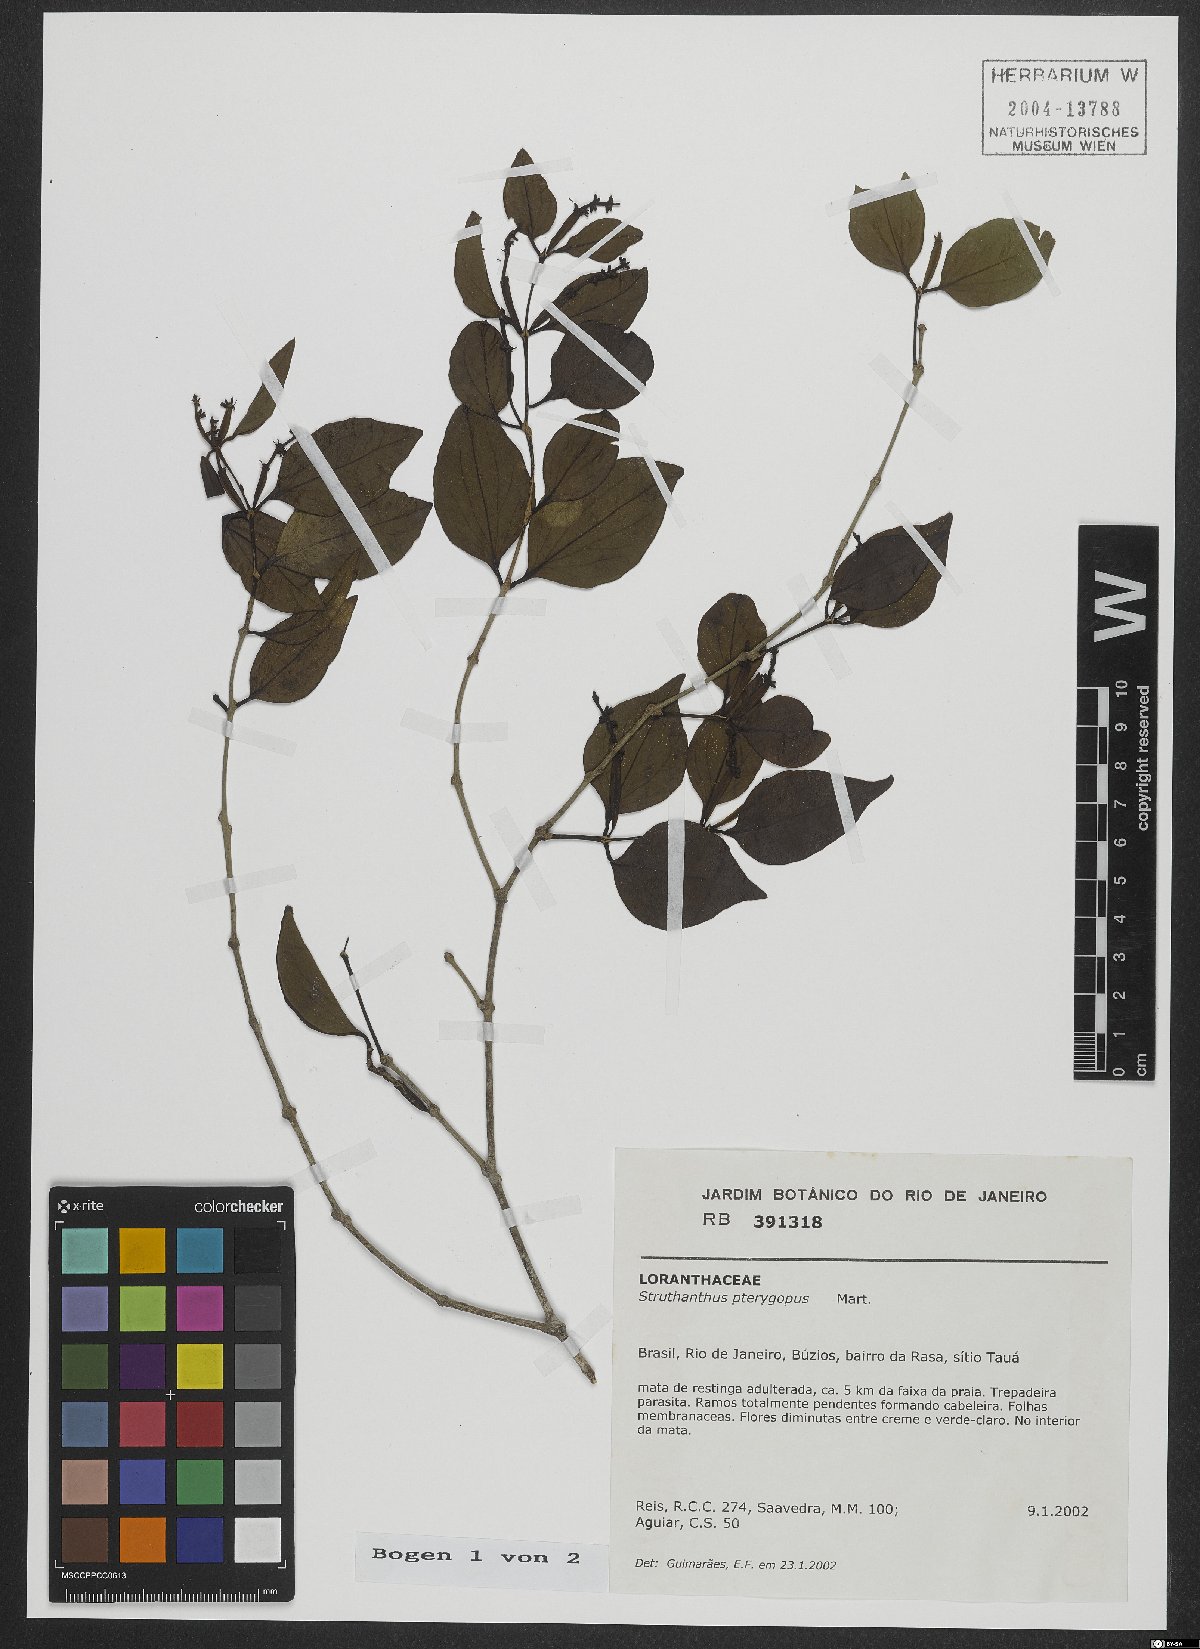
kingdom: Plantae
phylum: Tracheophyta
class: Magnoliopsida
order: Santalales
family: Loranthaceae
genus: Passovia
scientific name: Passovia podoptera
